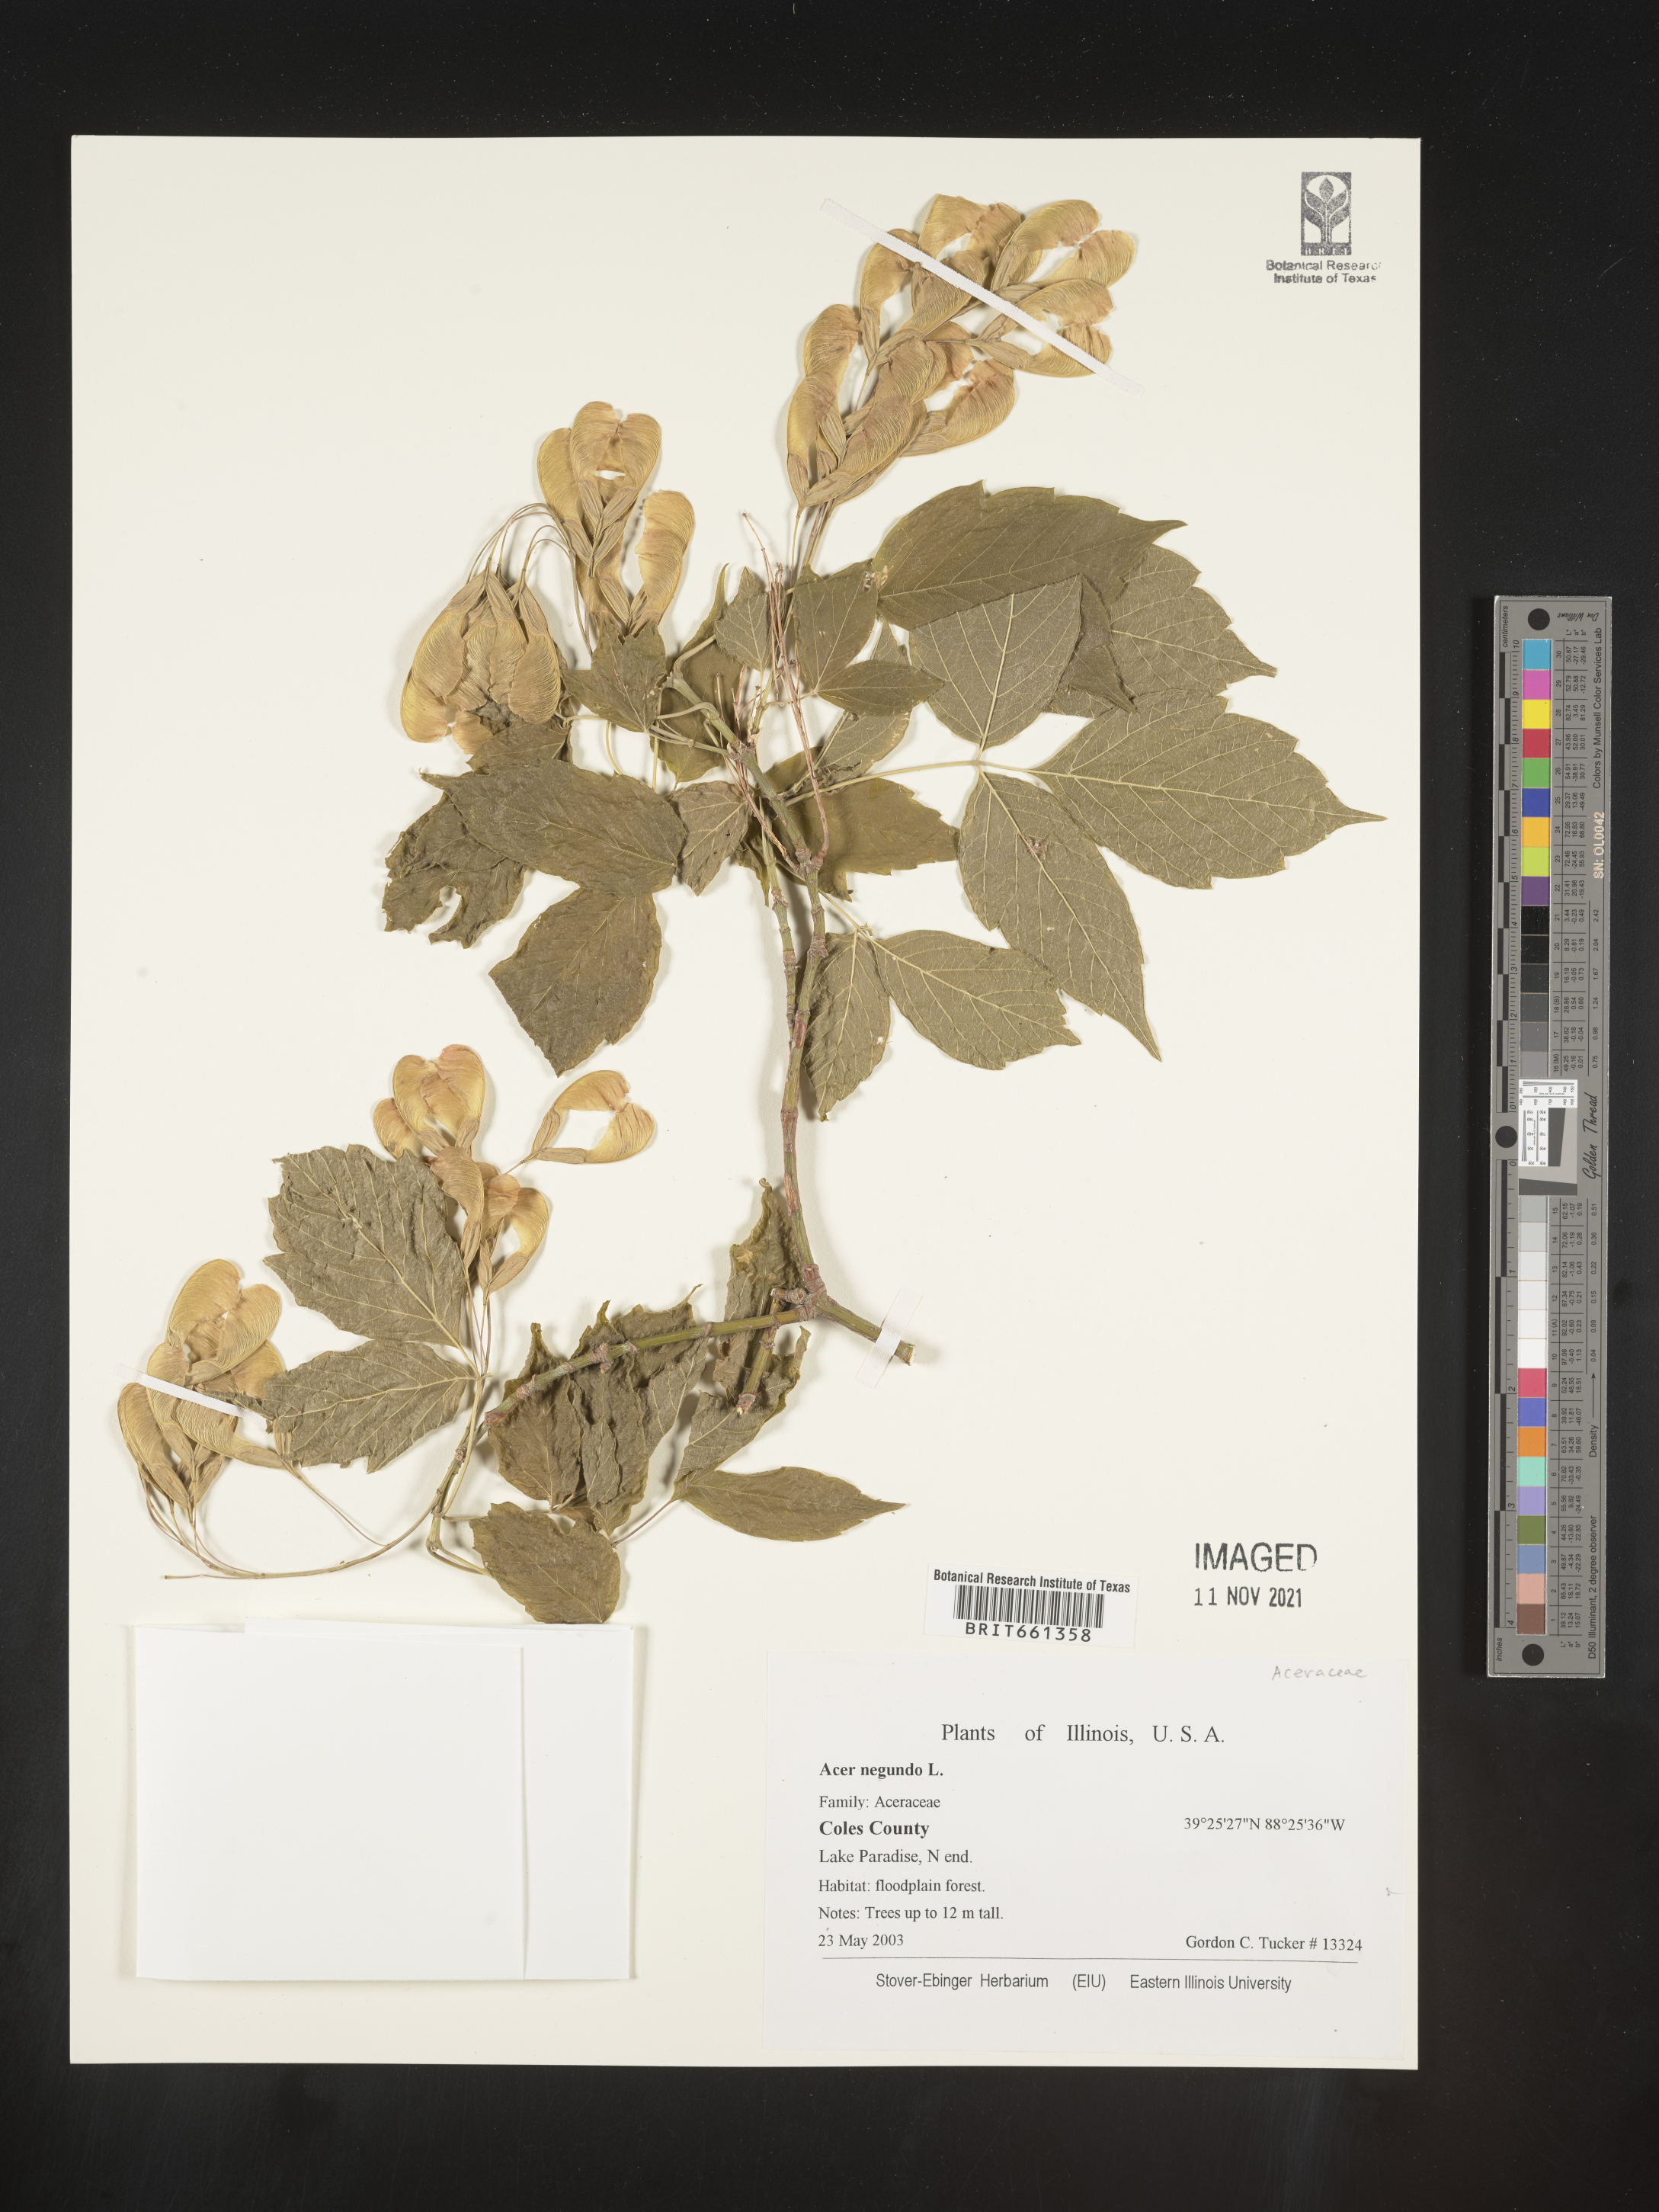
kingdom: Plantae
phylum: Tracheophyta
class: Magnoliopsida
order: Sapindales
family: Sapindaceae
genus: Acer
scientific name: Acer negundo
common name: Ashleaf maple
